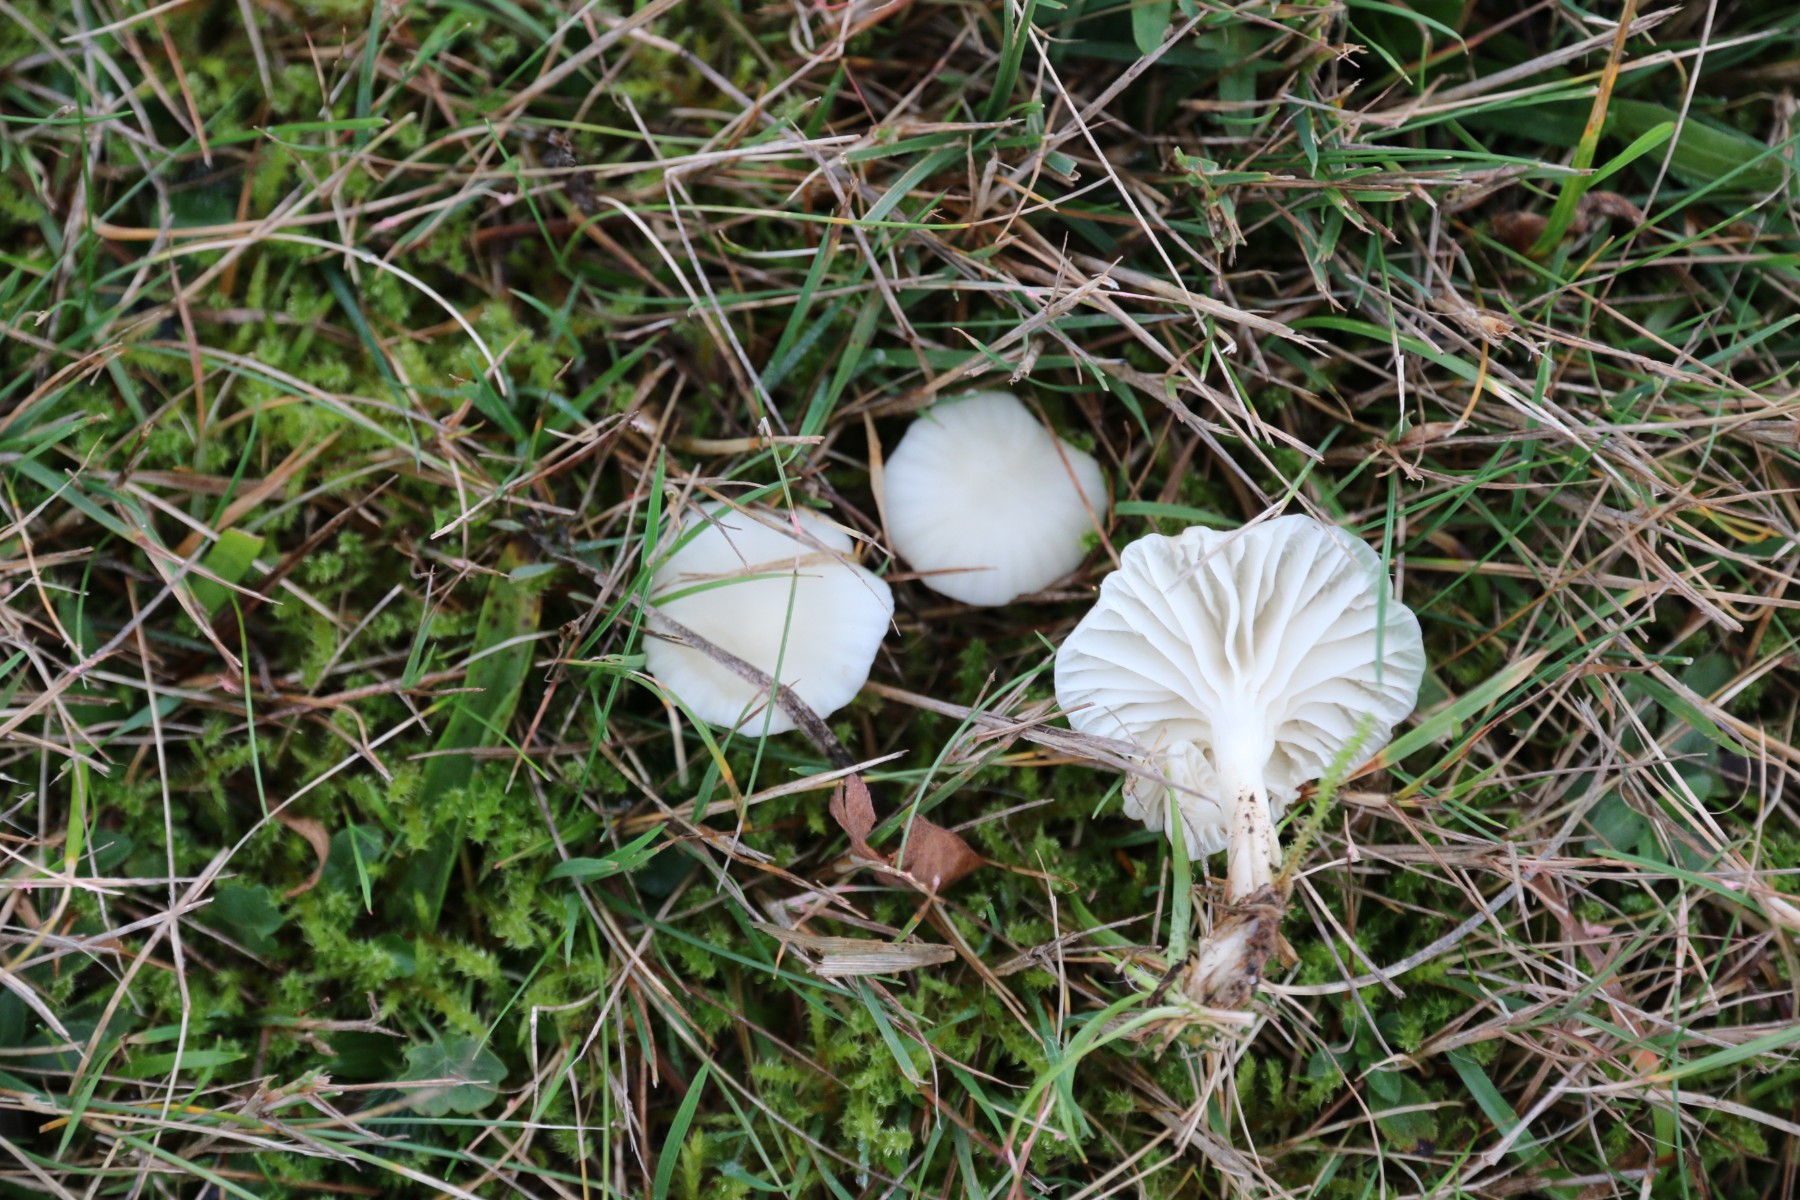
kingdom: Fungi
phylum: Basidiomycota
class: Agaricomycetes
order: Agaricales
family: Hygrophoraceae
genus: Cuphophyllus
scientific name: Cuphophyllus virgineus
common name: snehvid vokshat
